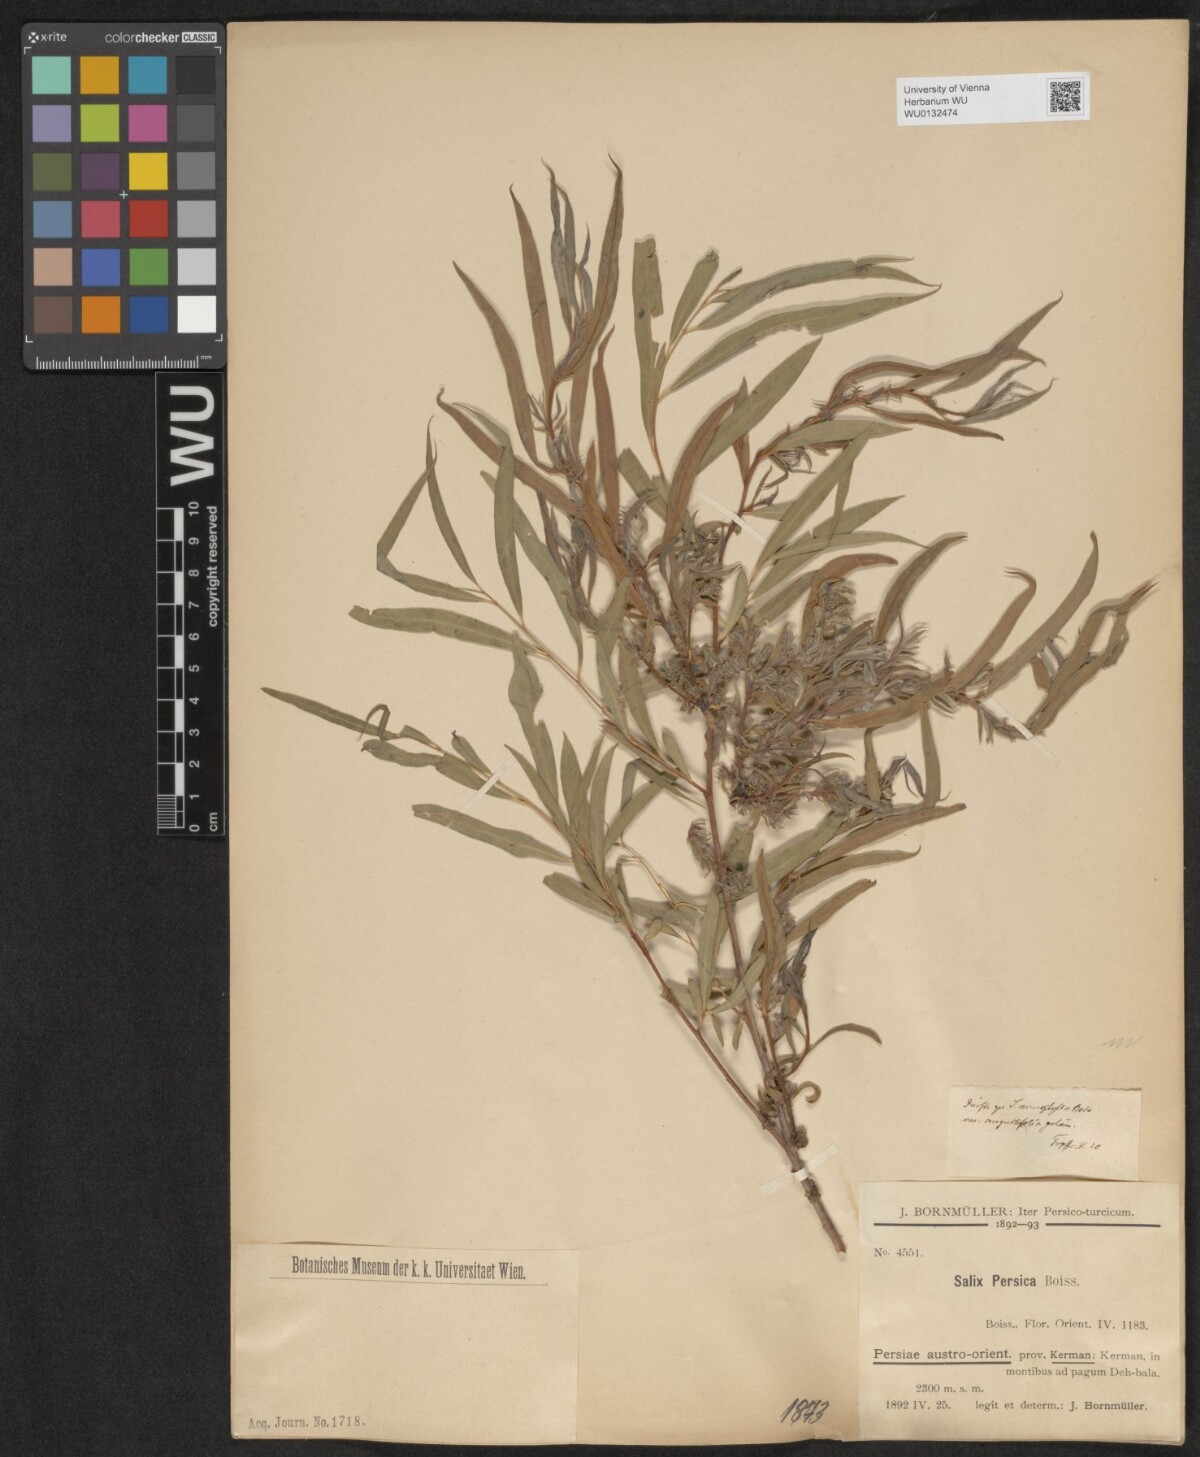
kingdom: Plantae
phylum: Tracheophyta
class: Magnoliopsida
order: Malpighiales
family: Salicaceae
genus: Salix
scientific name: Salix acmophylla
